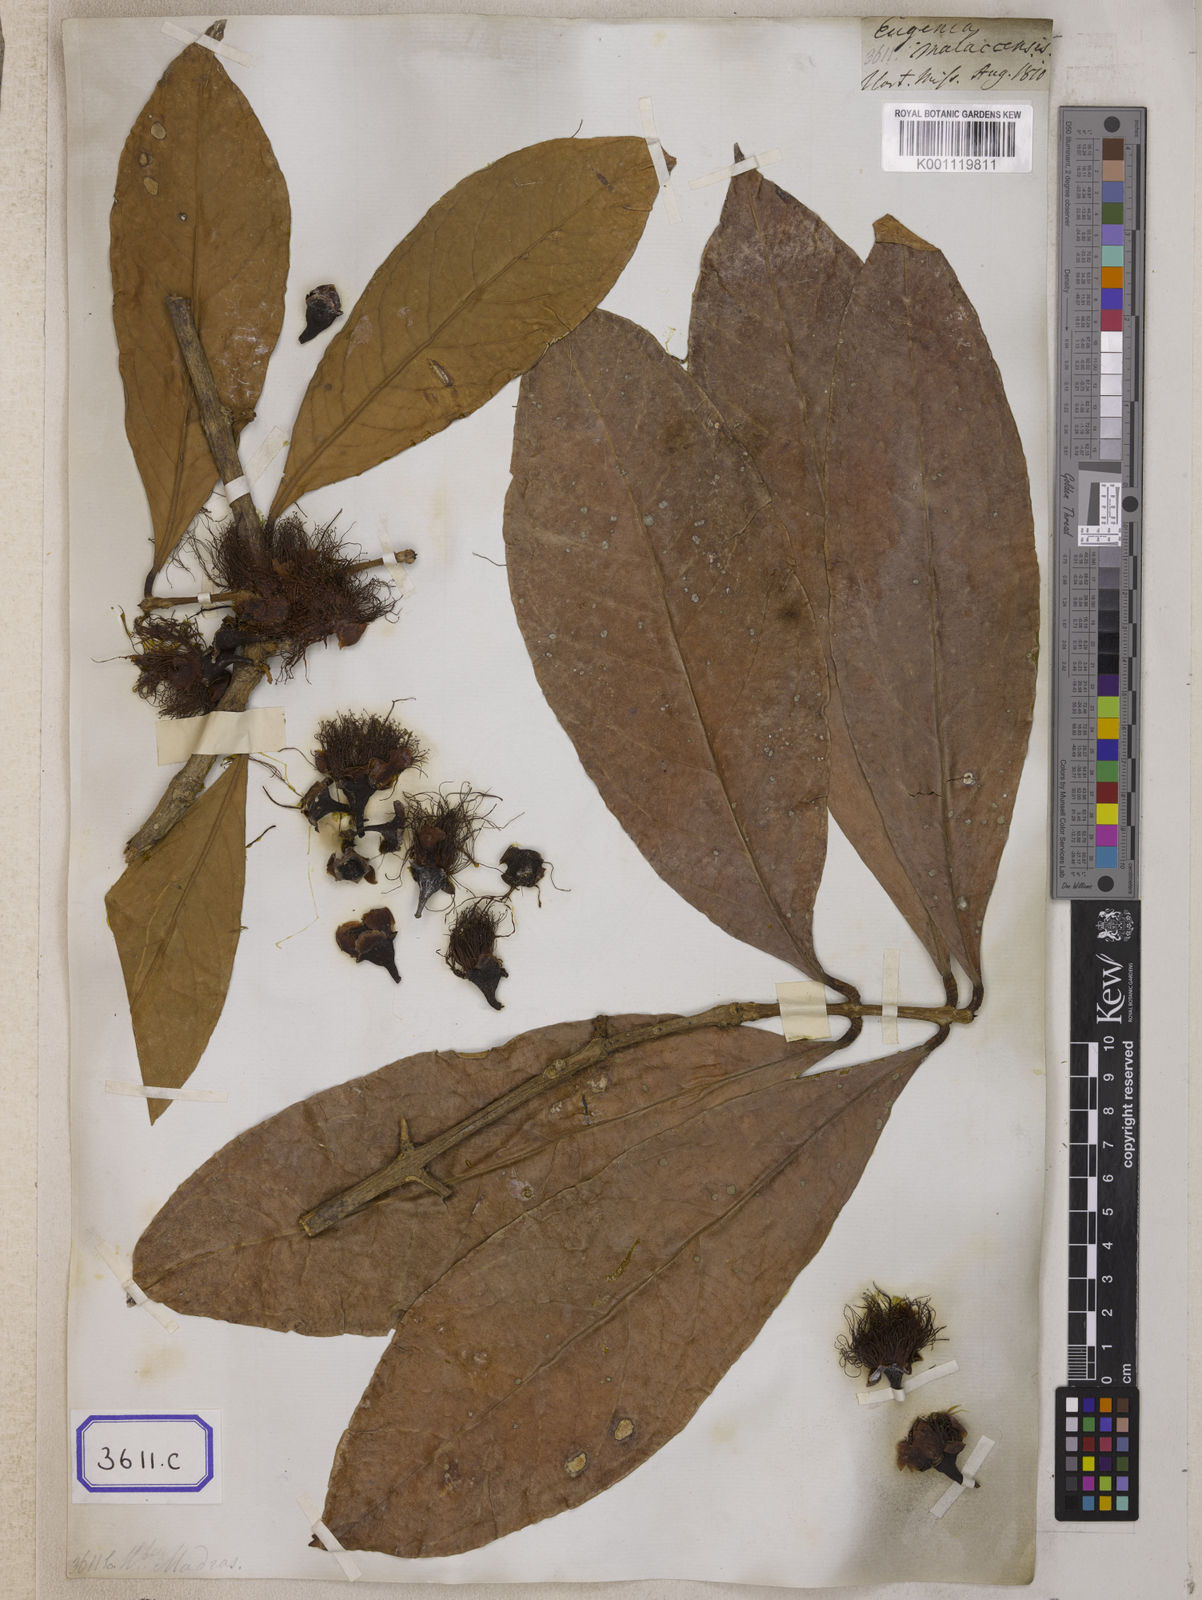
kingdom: Plantae
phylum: Tracheophyta
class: Magnoliopsida
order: Myrtales
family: Myrtaceae
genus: Syzygium
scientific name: Syzygium malaccense
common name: Malaysian apple
